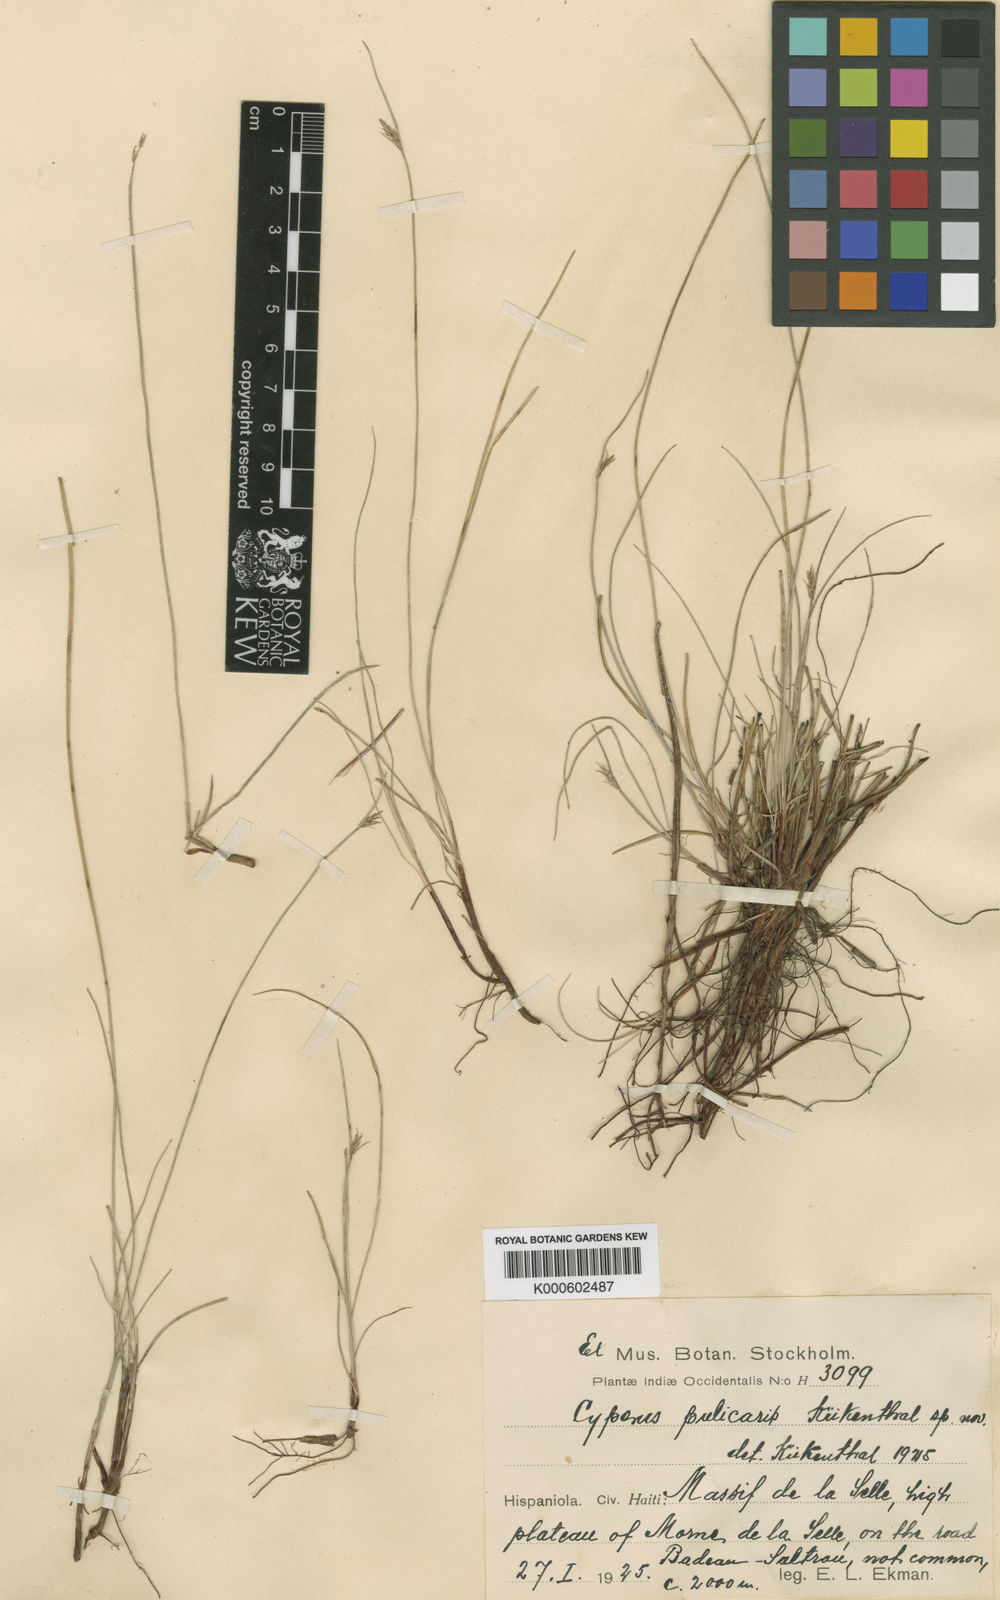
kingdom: Plantae
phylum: Tracheophyta
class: Liliopsida
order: Poales
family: Cyperaceae
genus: Cyperus
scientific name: Cyperus
